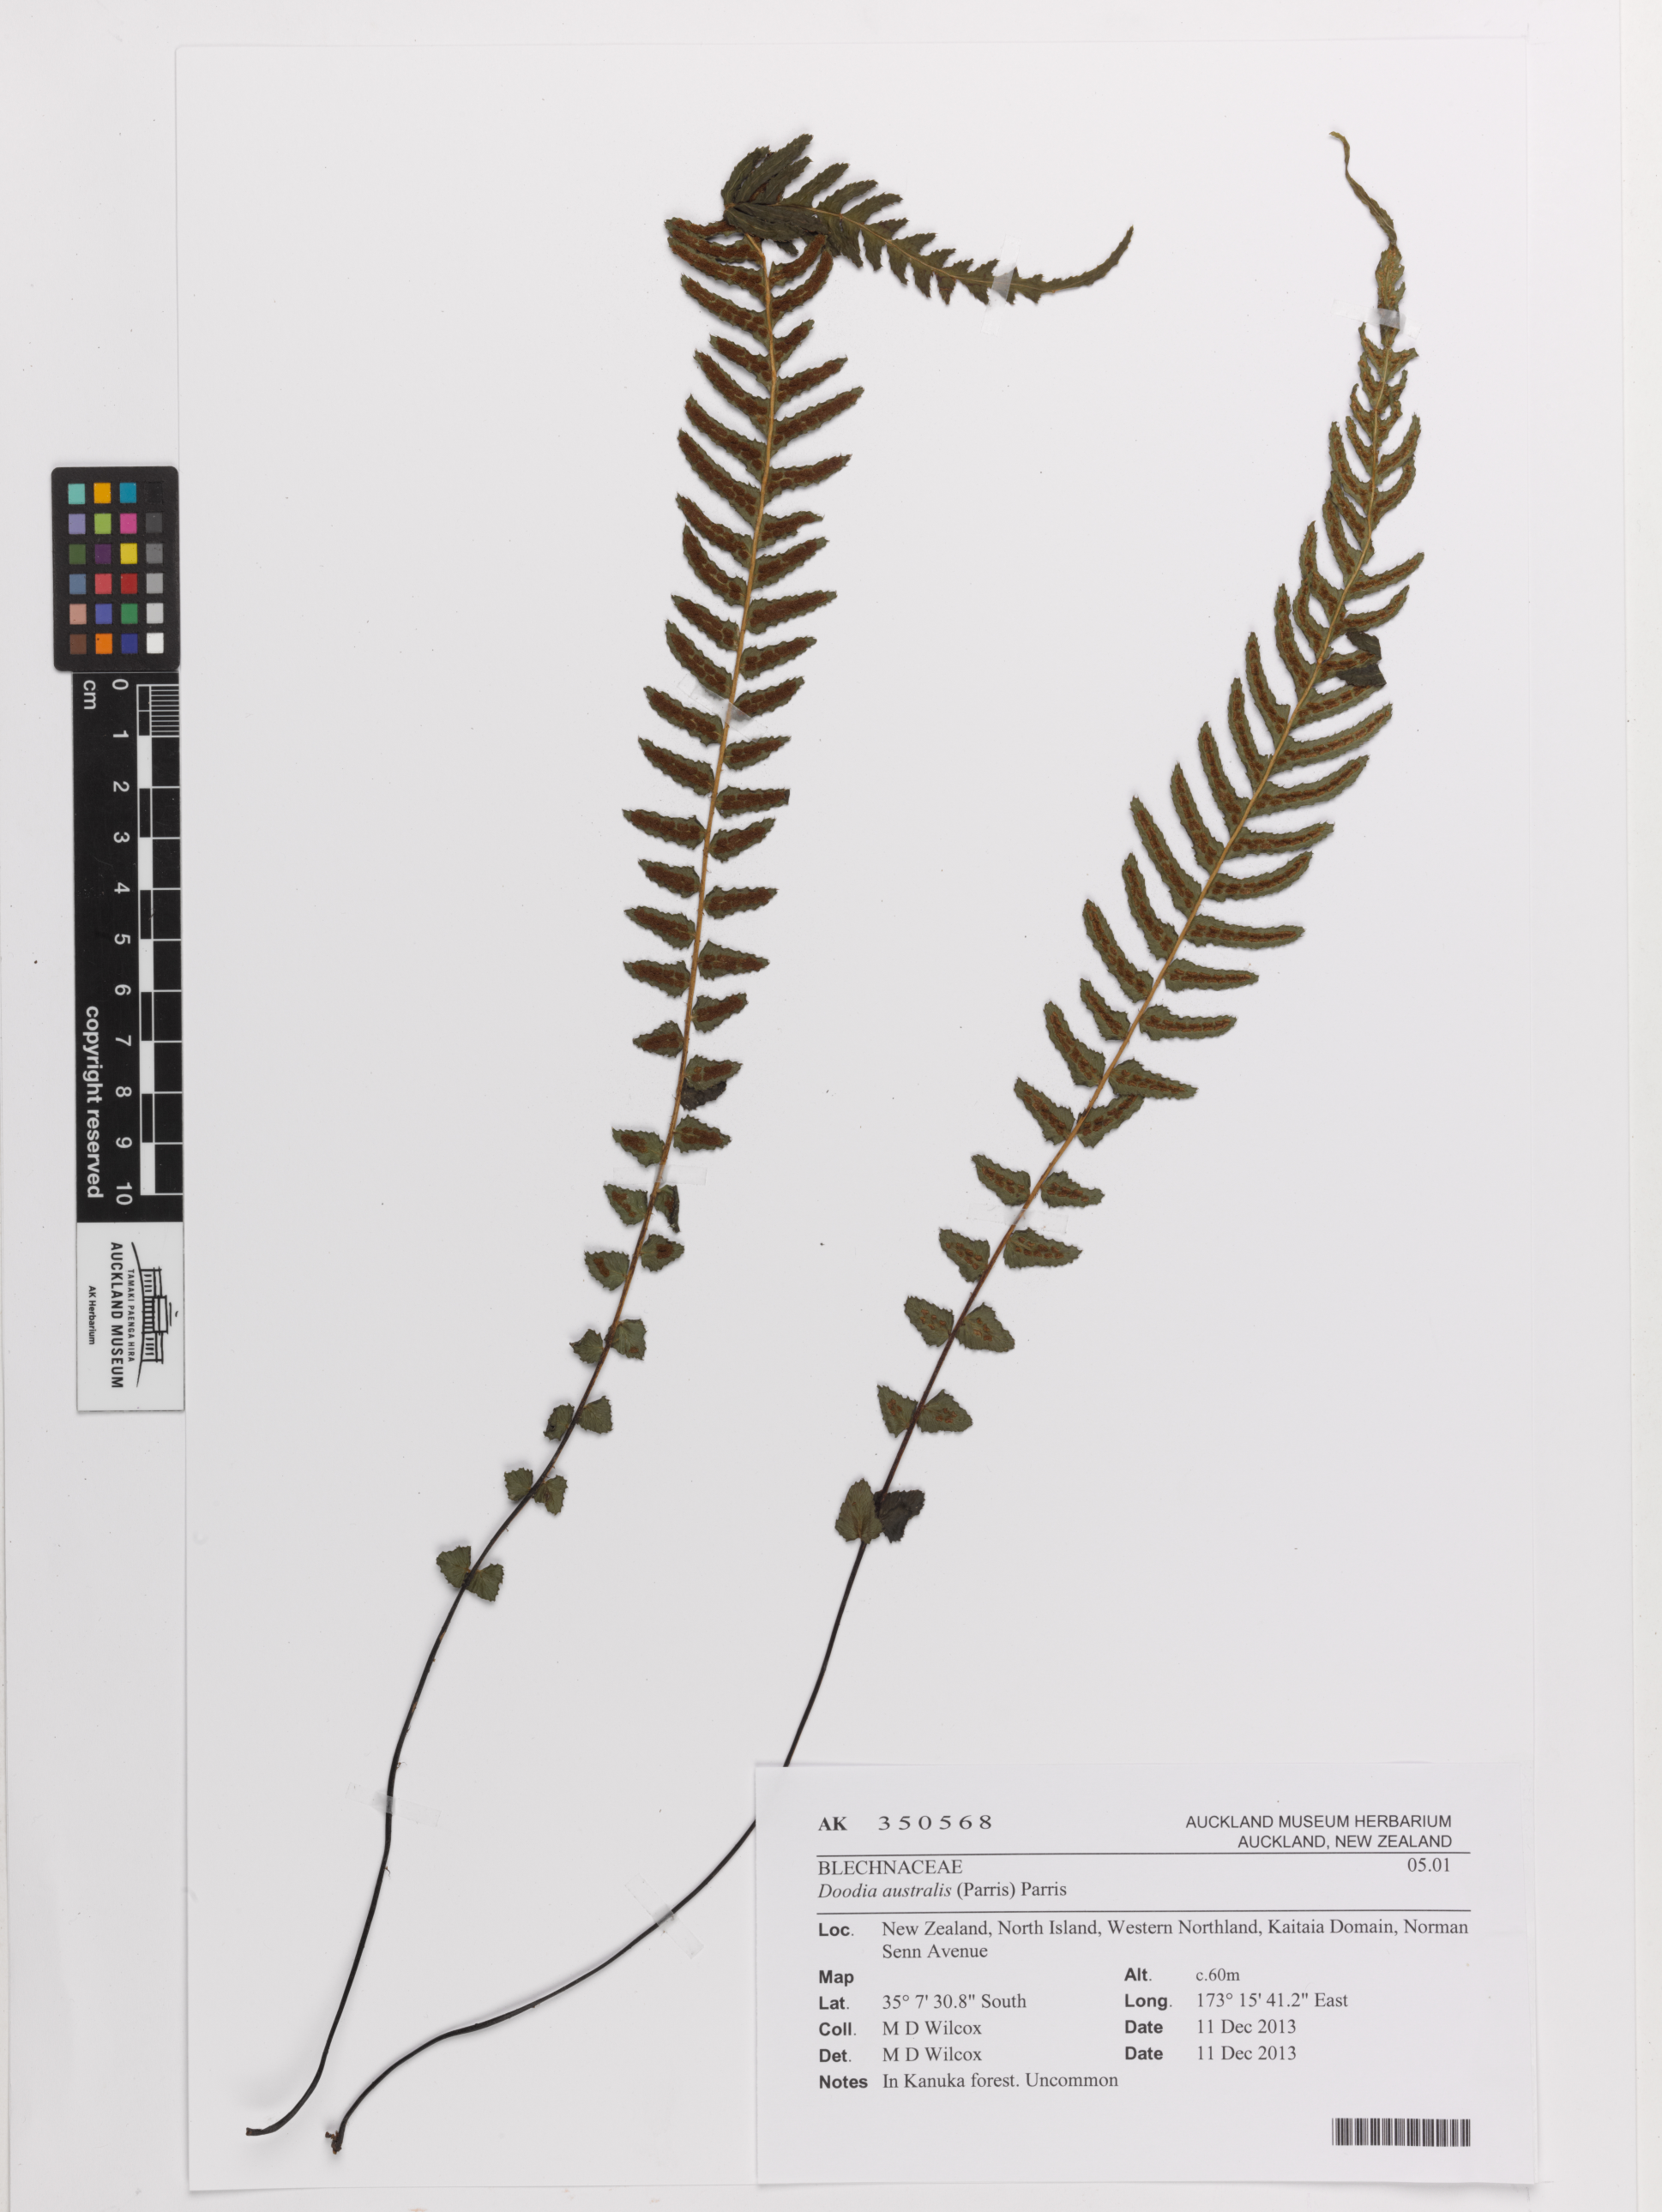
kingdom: Plantae
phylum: Tracheophyta
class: Polypodiopsida
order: Polypodiales
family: Blechnaceae
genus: Doodia
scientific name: Doodia australis
